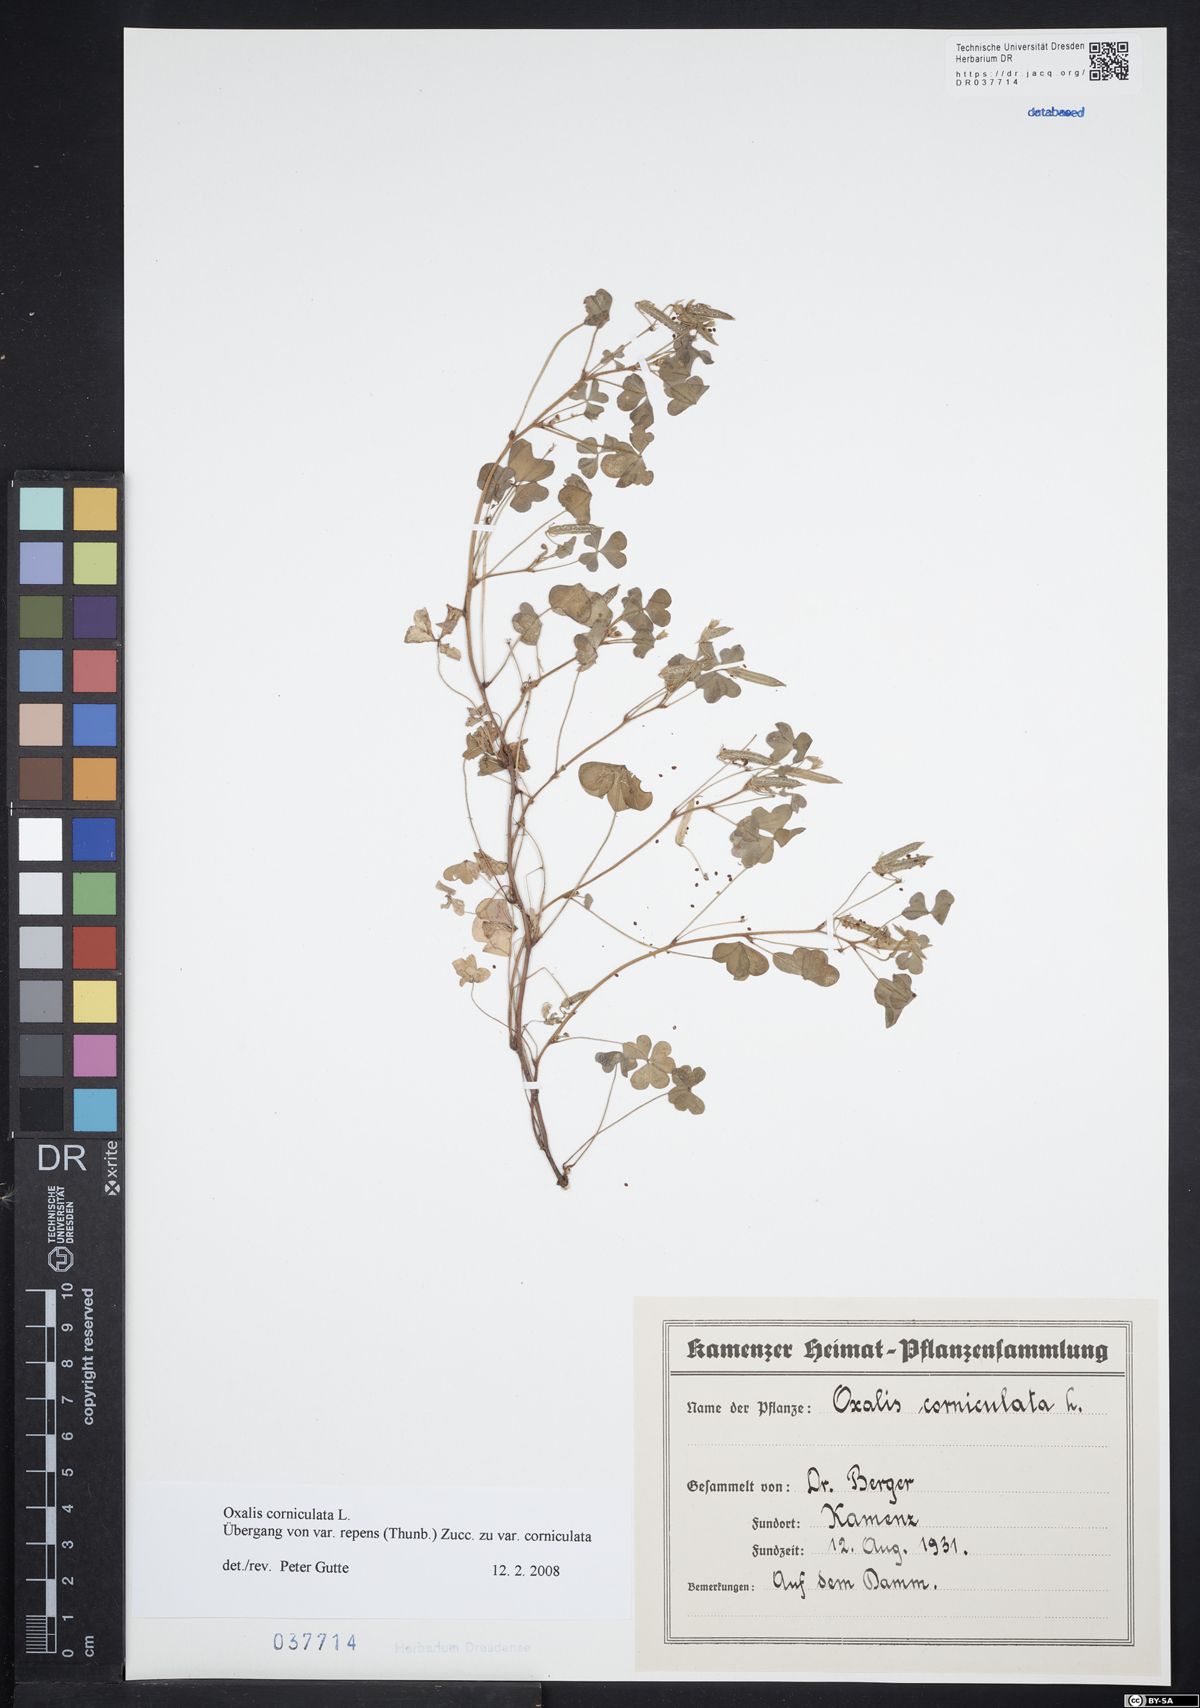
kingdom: Plantae
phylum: Tracheophyta
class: Magnoliopsida
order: Oxalidales
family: Oxalidaceae
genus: Oxalis
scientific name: Oxalis corniculata
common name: Procumbent yellow-sorrel
